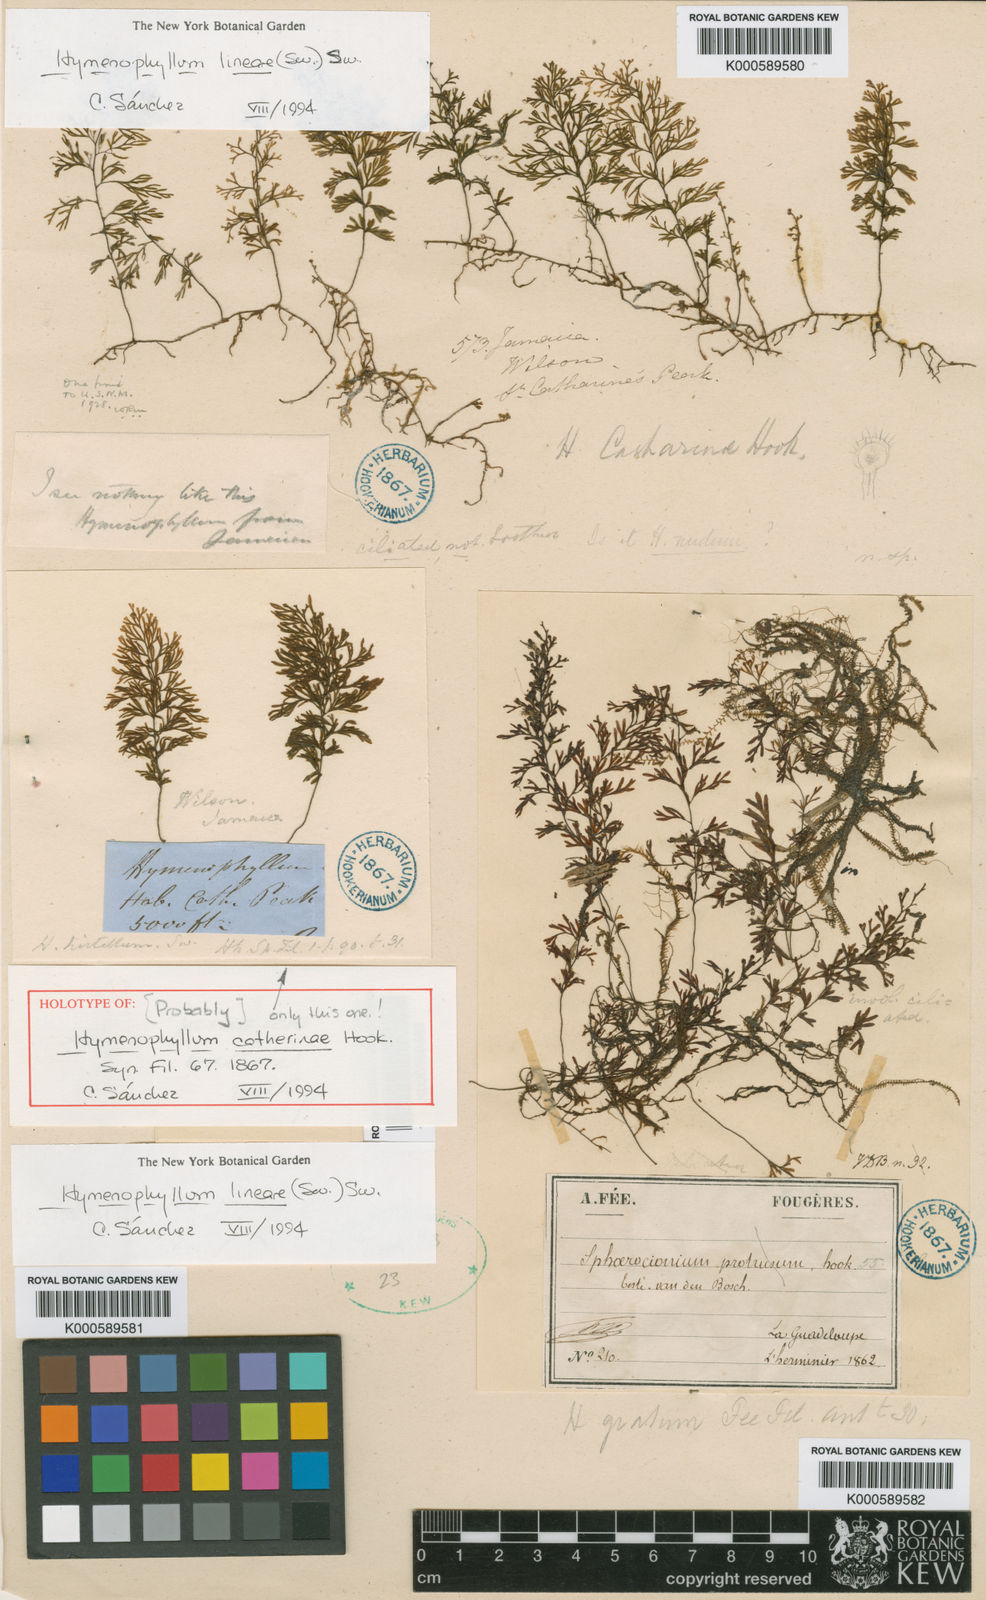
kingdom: Plantae
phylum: Tracheophyta
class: Polypodiopsida
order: Hymenophyllales
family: Hymenophyllaceae
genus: Hymenophyllum
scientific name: Hymenophyllum lineare
